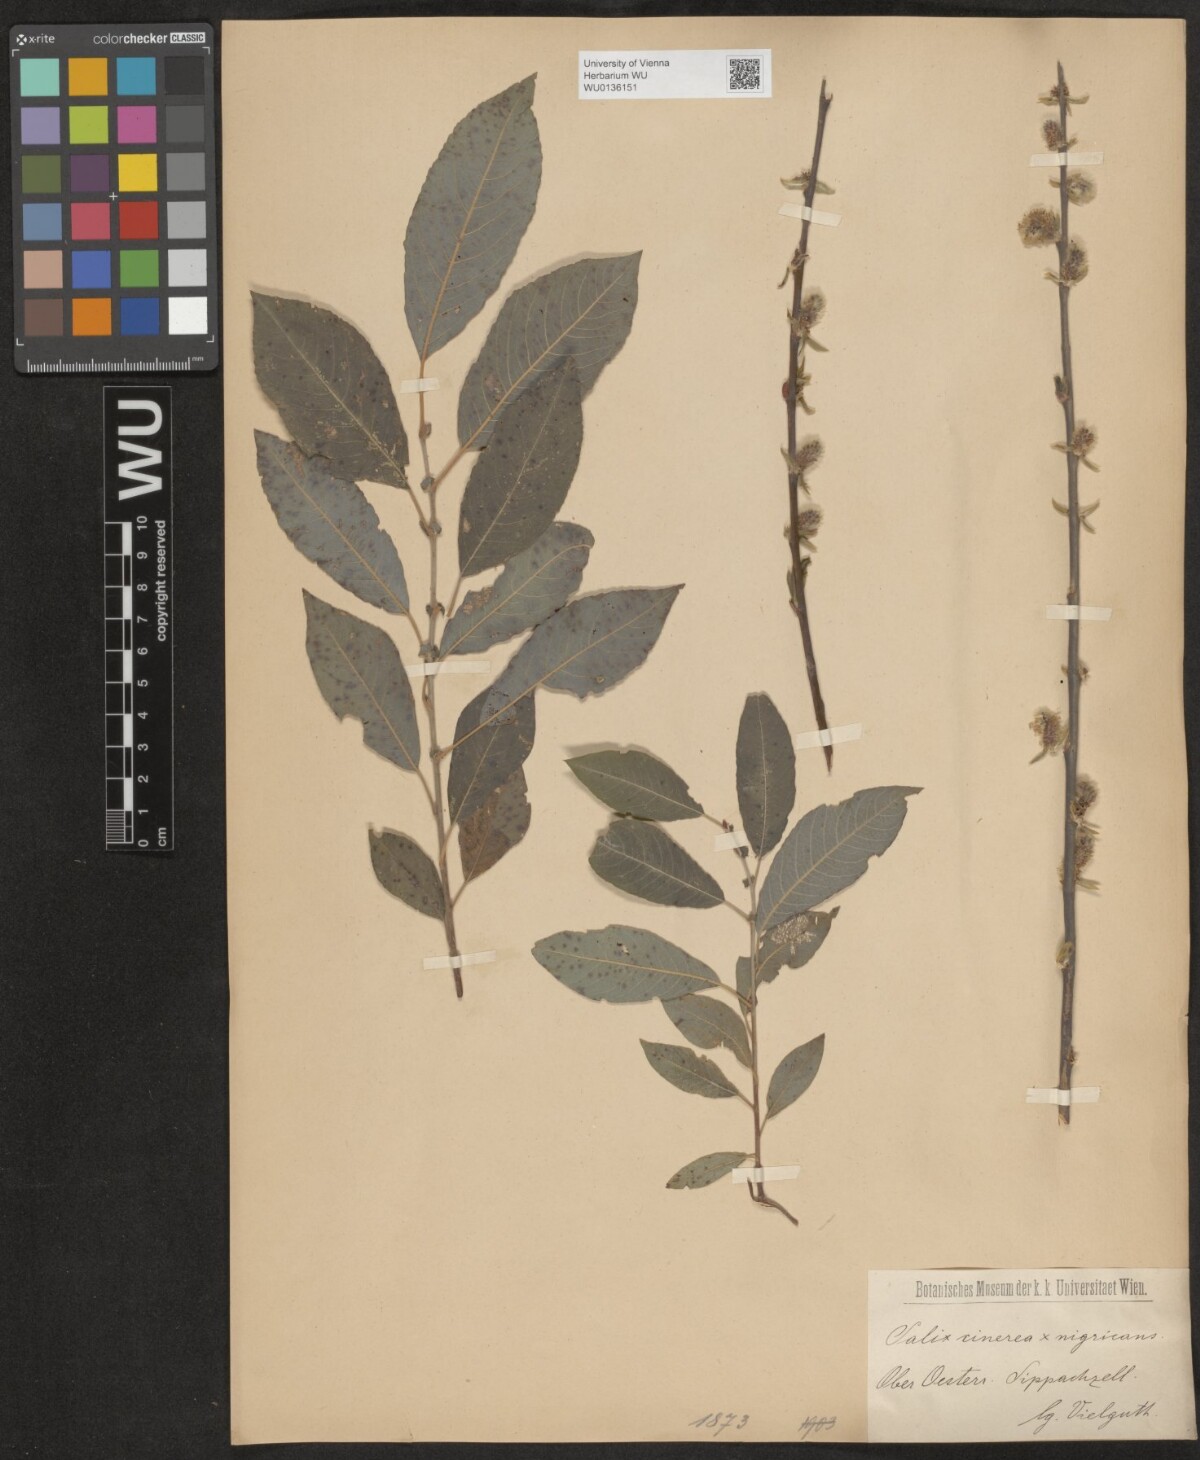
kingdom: Plantae
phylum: Tracheophyta
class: Magnoliopsida
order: Malpighiales
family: Salicaceae
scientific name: Salicaceae
